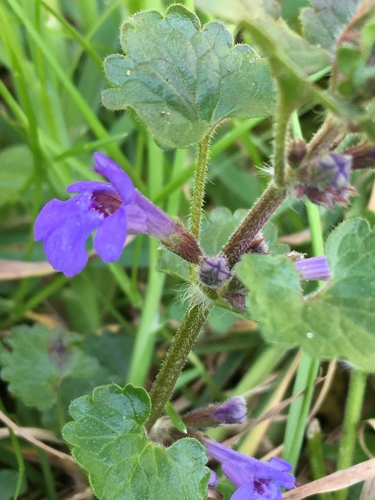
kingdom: Plantae
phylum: Tracheophyta
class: Magnoliopsida
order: Lamiales
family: Lamiaceae
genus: Glechoma
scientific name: Glechoma hederacea
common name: Ground ivy
